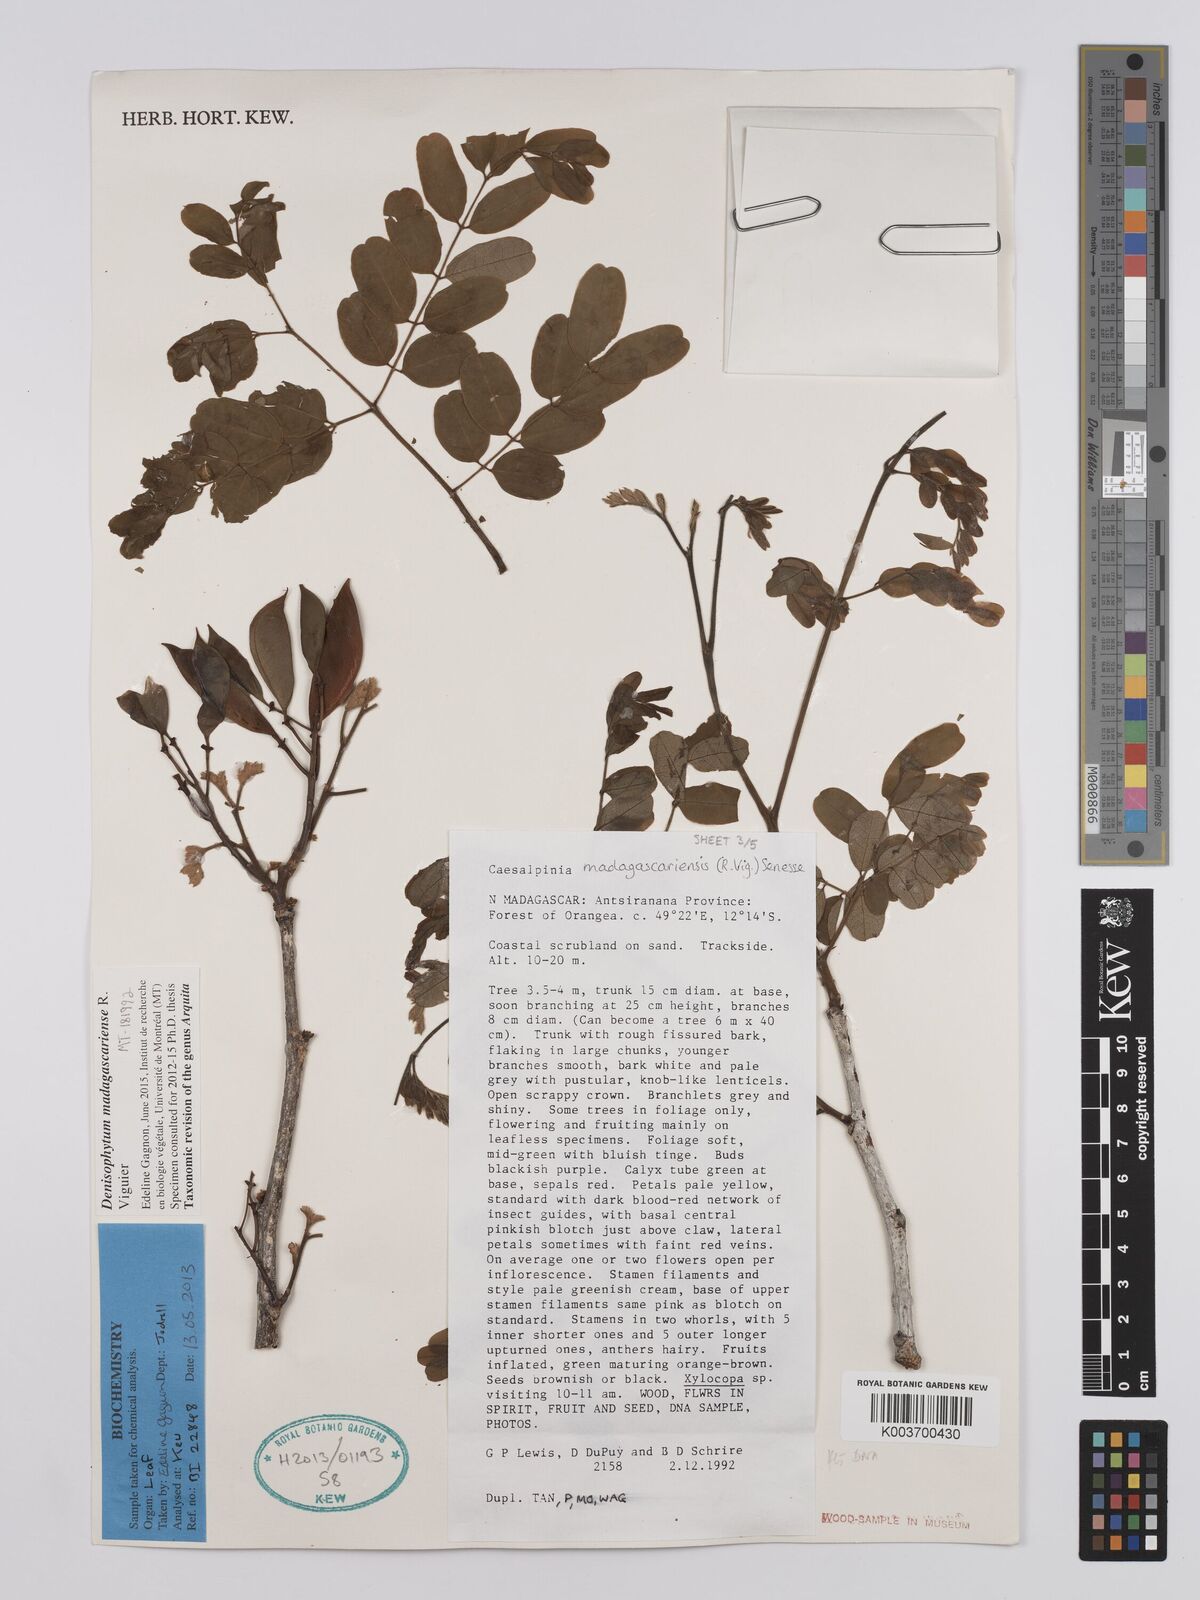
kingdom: Plantae
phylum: Tracheophyta
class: Magnoliopsida
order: Fabales
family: Fabaceae
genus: Denisophytum
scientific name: Denisophytum madagascariense
